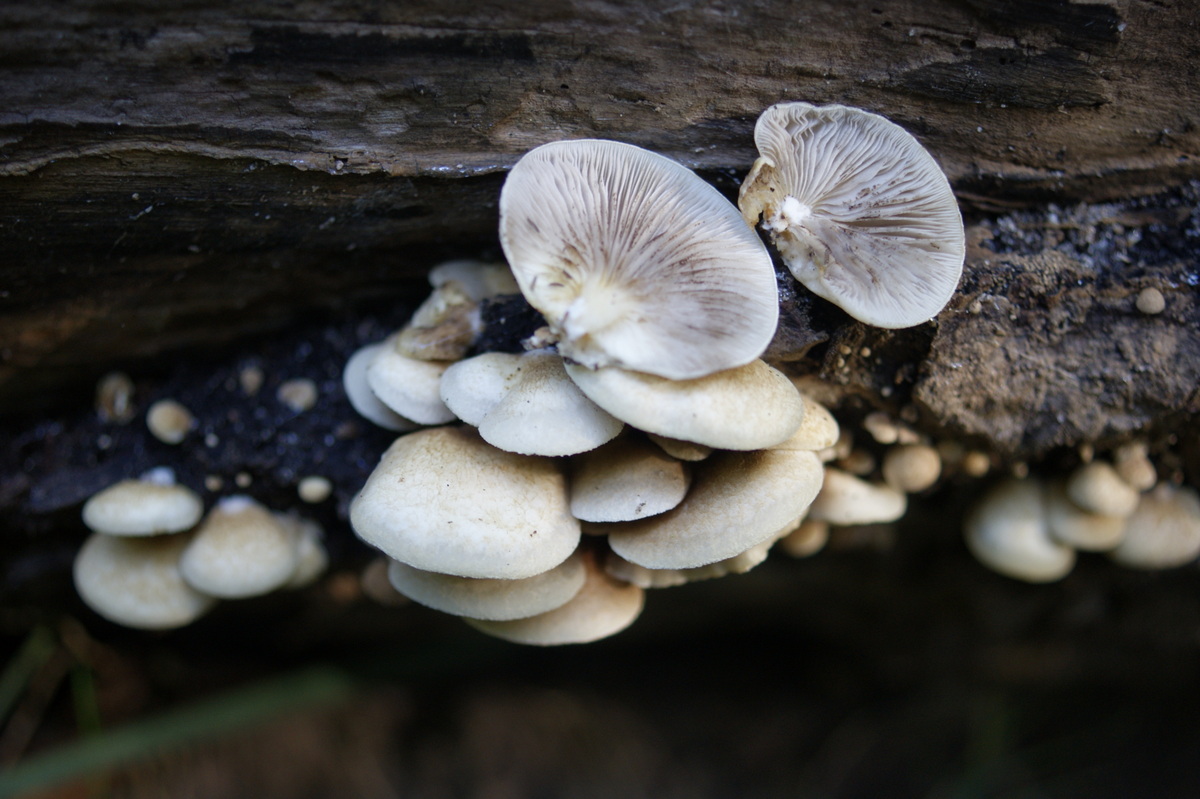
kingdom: Fungi
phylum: Basidiomycota
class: Agaricomycetes
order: Agaricales
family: Crepidotaceae
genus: Crepidotus
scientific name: Crepidotus calolepis
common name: småskællet muslingesvamp
